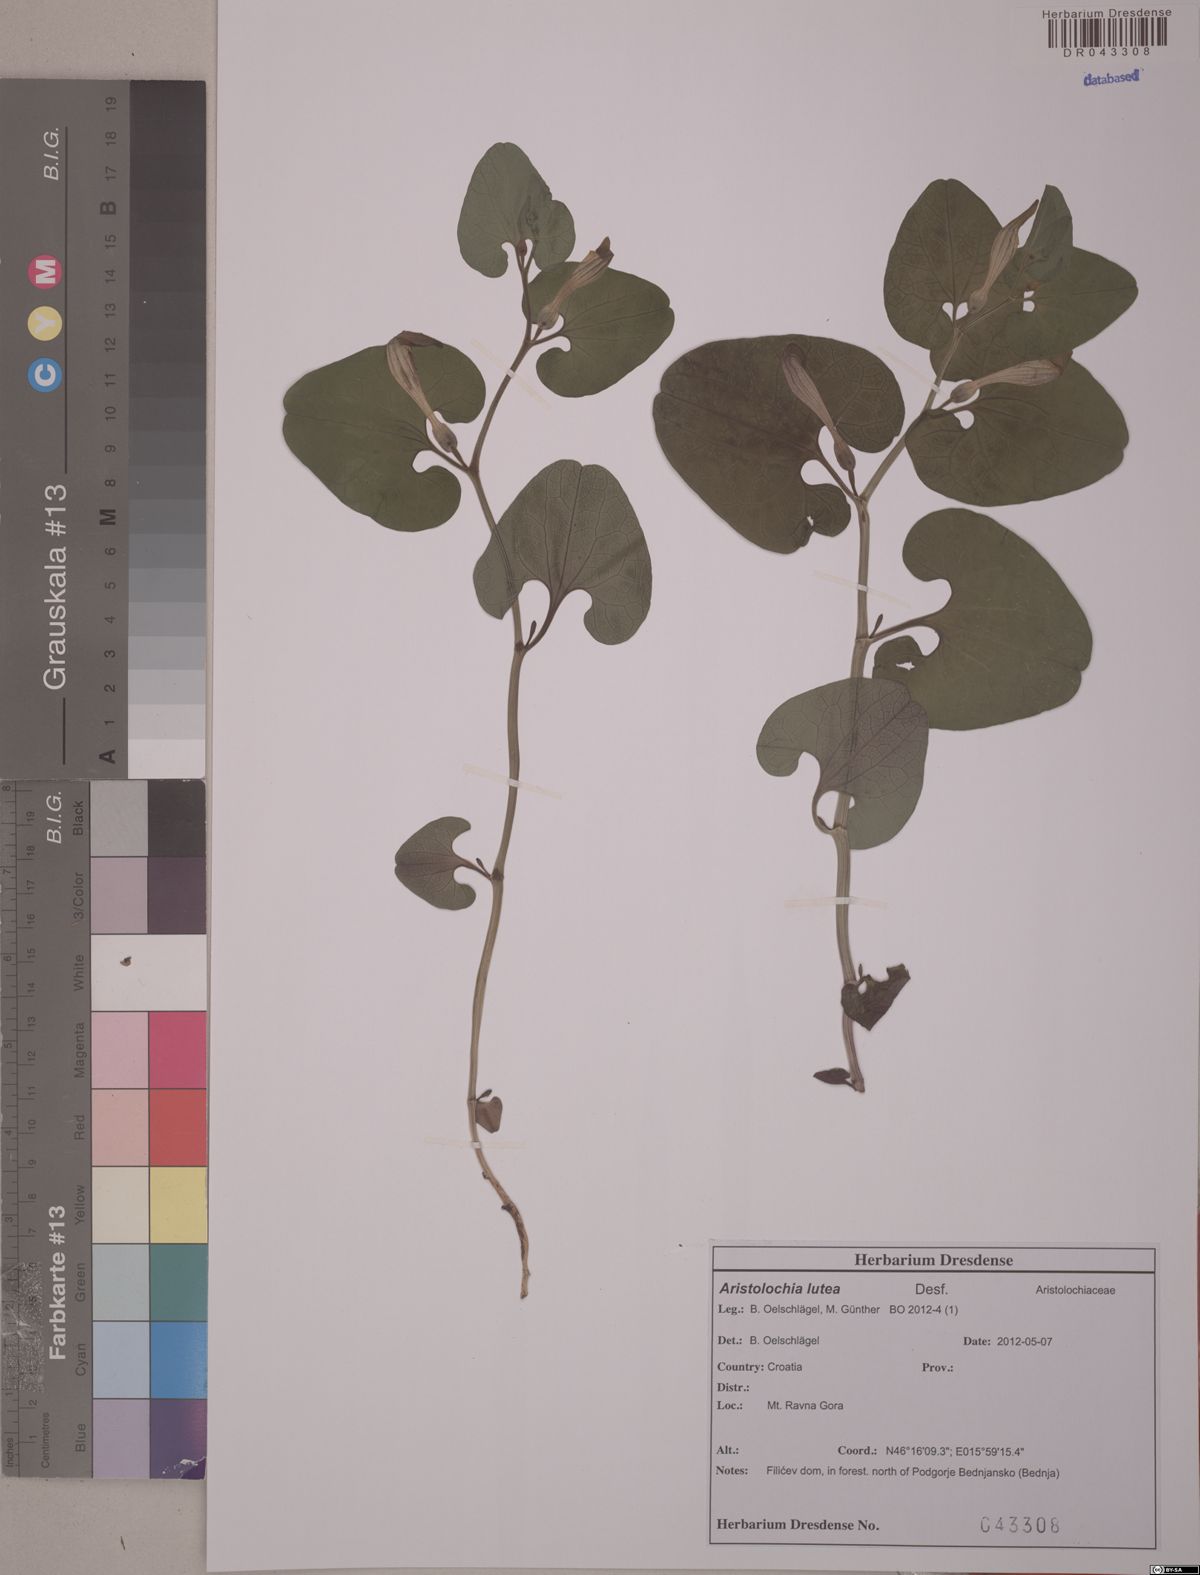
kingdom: Plantae
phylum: Tracheophyta
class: Magnoliopsida
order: Piperales
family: Aristolochiaceae
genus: Aristolochia
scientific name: Aristolochia lutea
